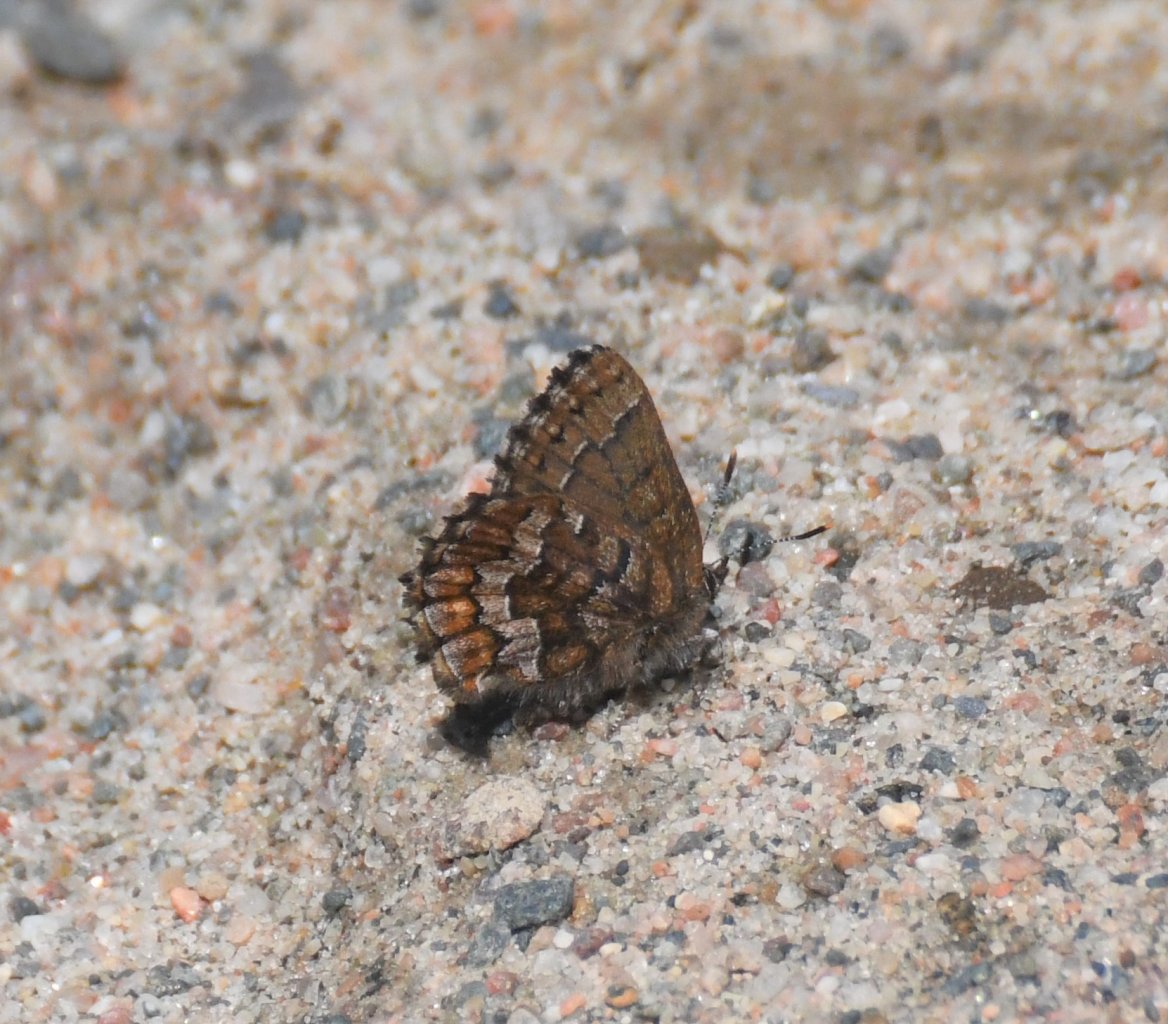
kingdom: Animalia
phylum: Arthropoda
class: Insecta
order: Lepidoptera
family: Lycaenidae
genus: Incisalia
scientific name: Incisalia niphon
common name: Eastern Pine Elfin
